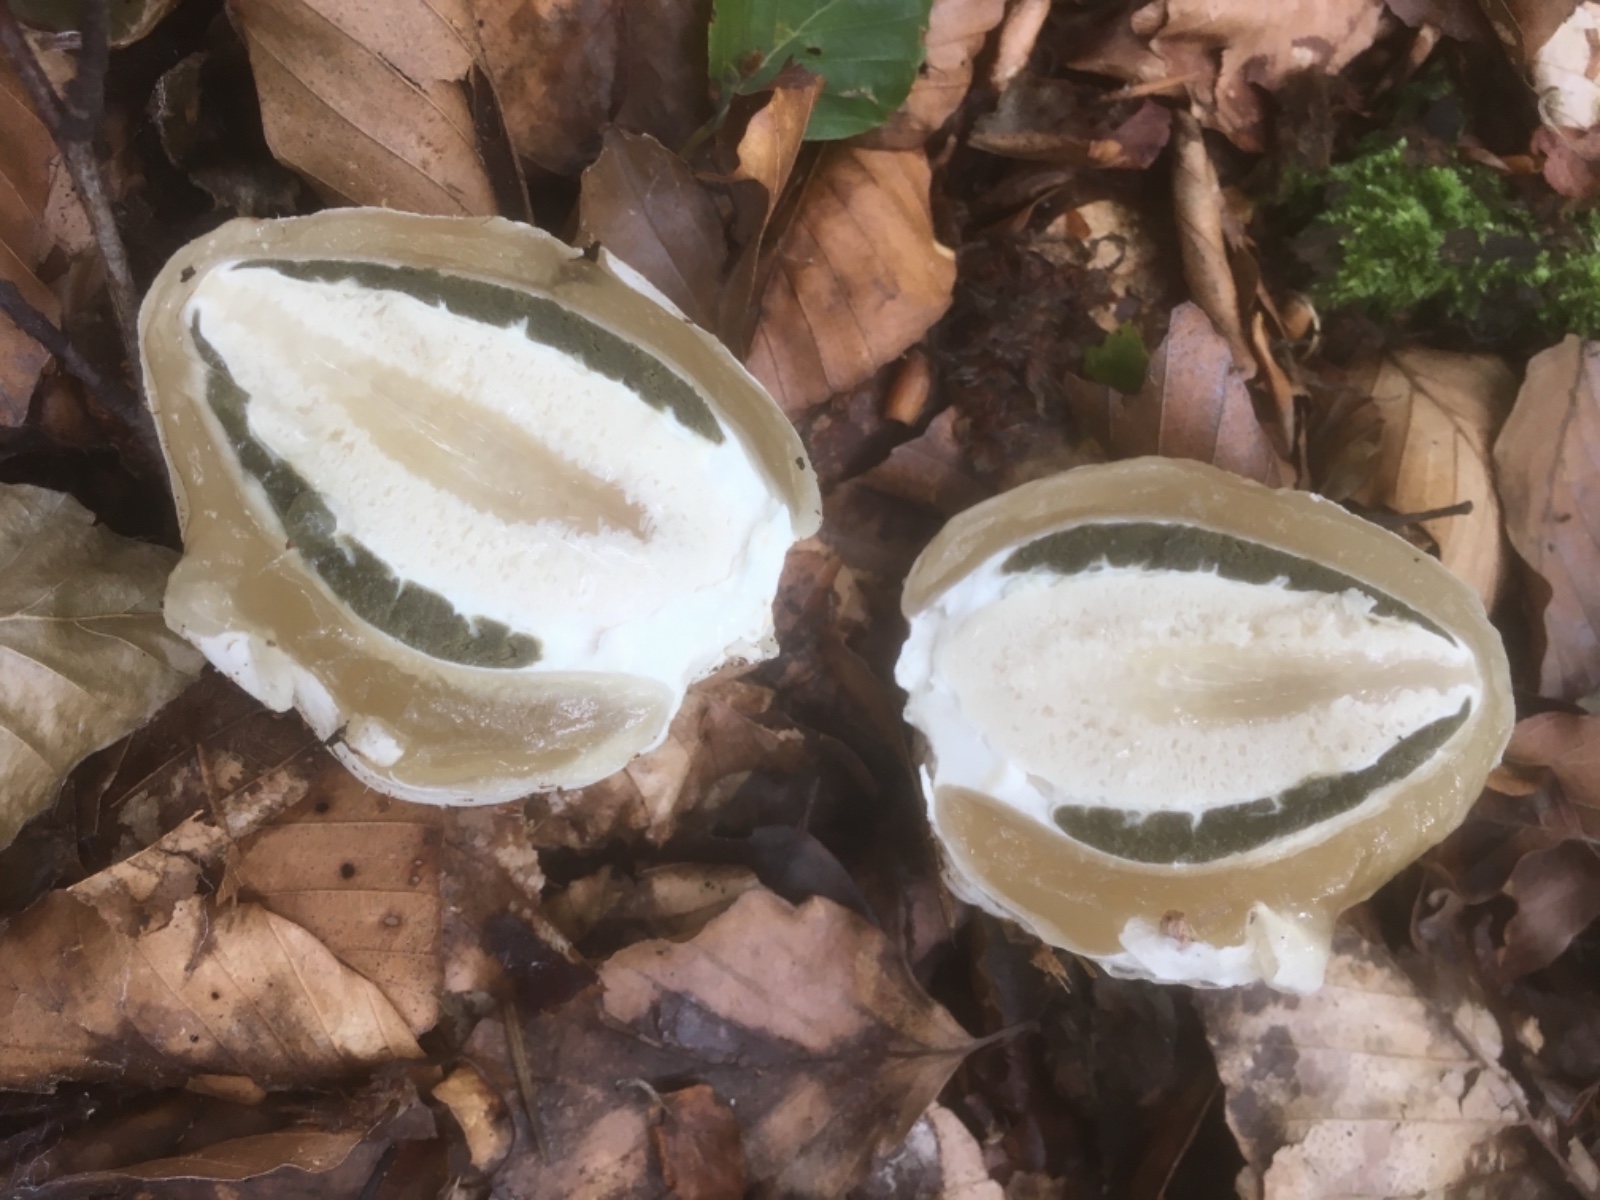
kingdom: Fungi
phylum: Basidiomycota
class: Agaricomycetes
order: Phallales
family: Phallaceae
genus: Phallus
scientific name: Phallus impudicus
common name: almindelig stinksvamp
